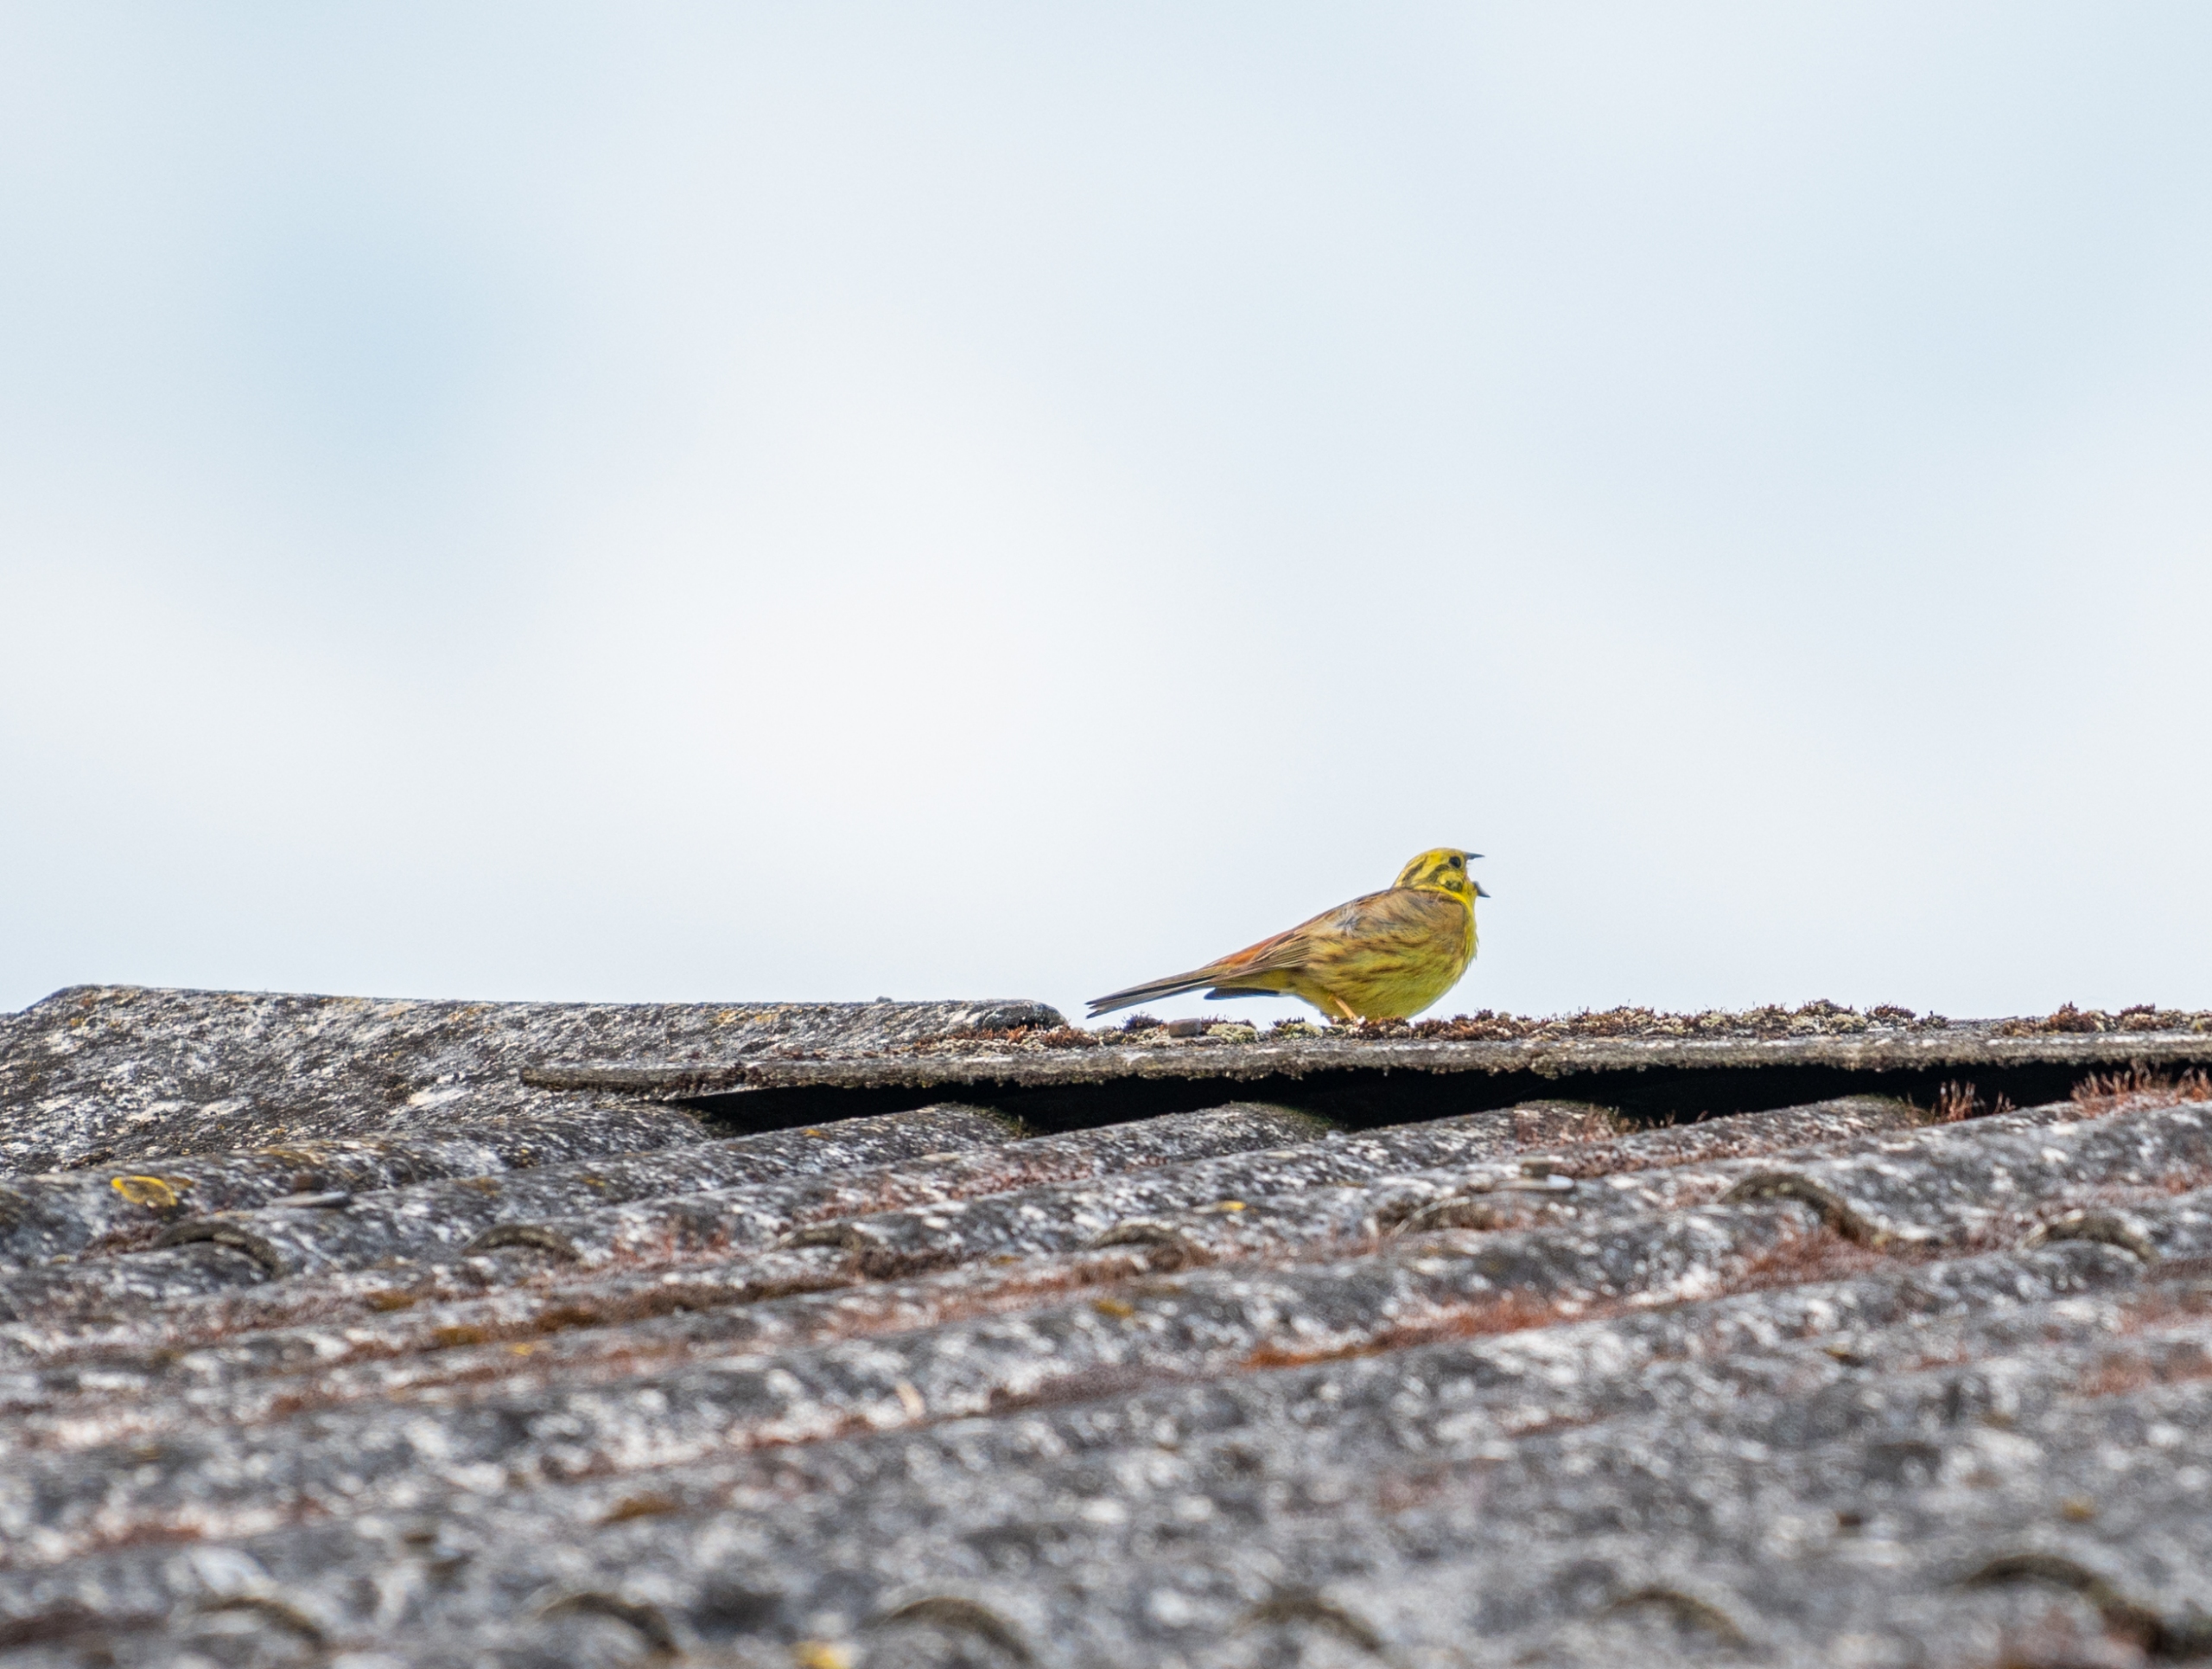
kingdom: Animalia
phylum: Chordata
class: Aves
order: Passeriformes
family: Emberizidae
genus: Emberiza
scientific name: Emberiza citrinella
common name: Gulspurv
